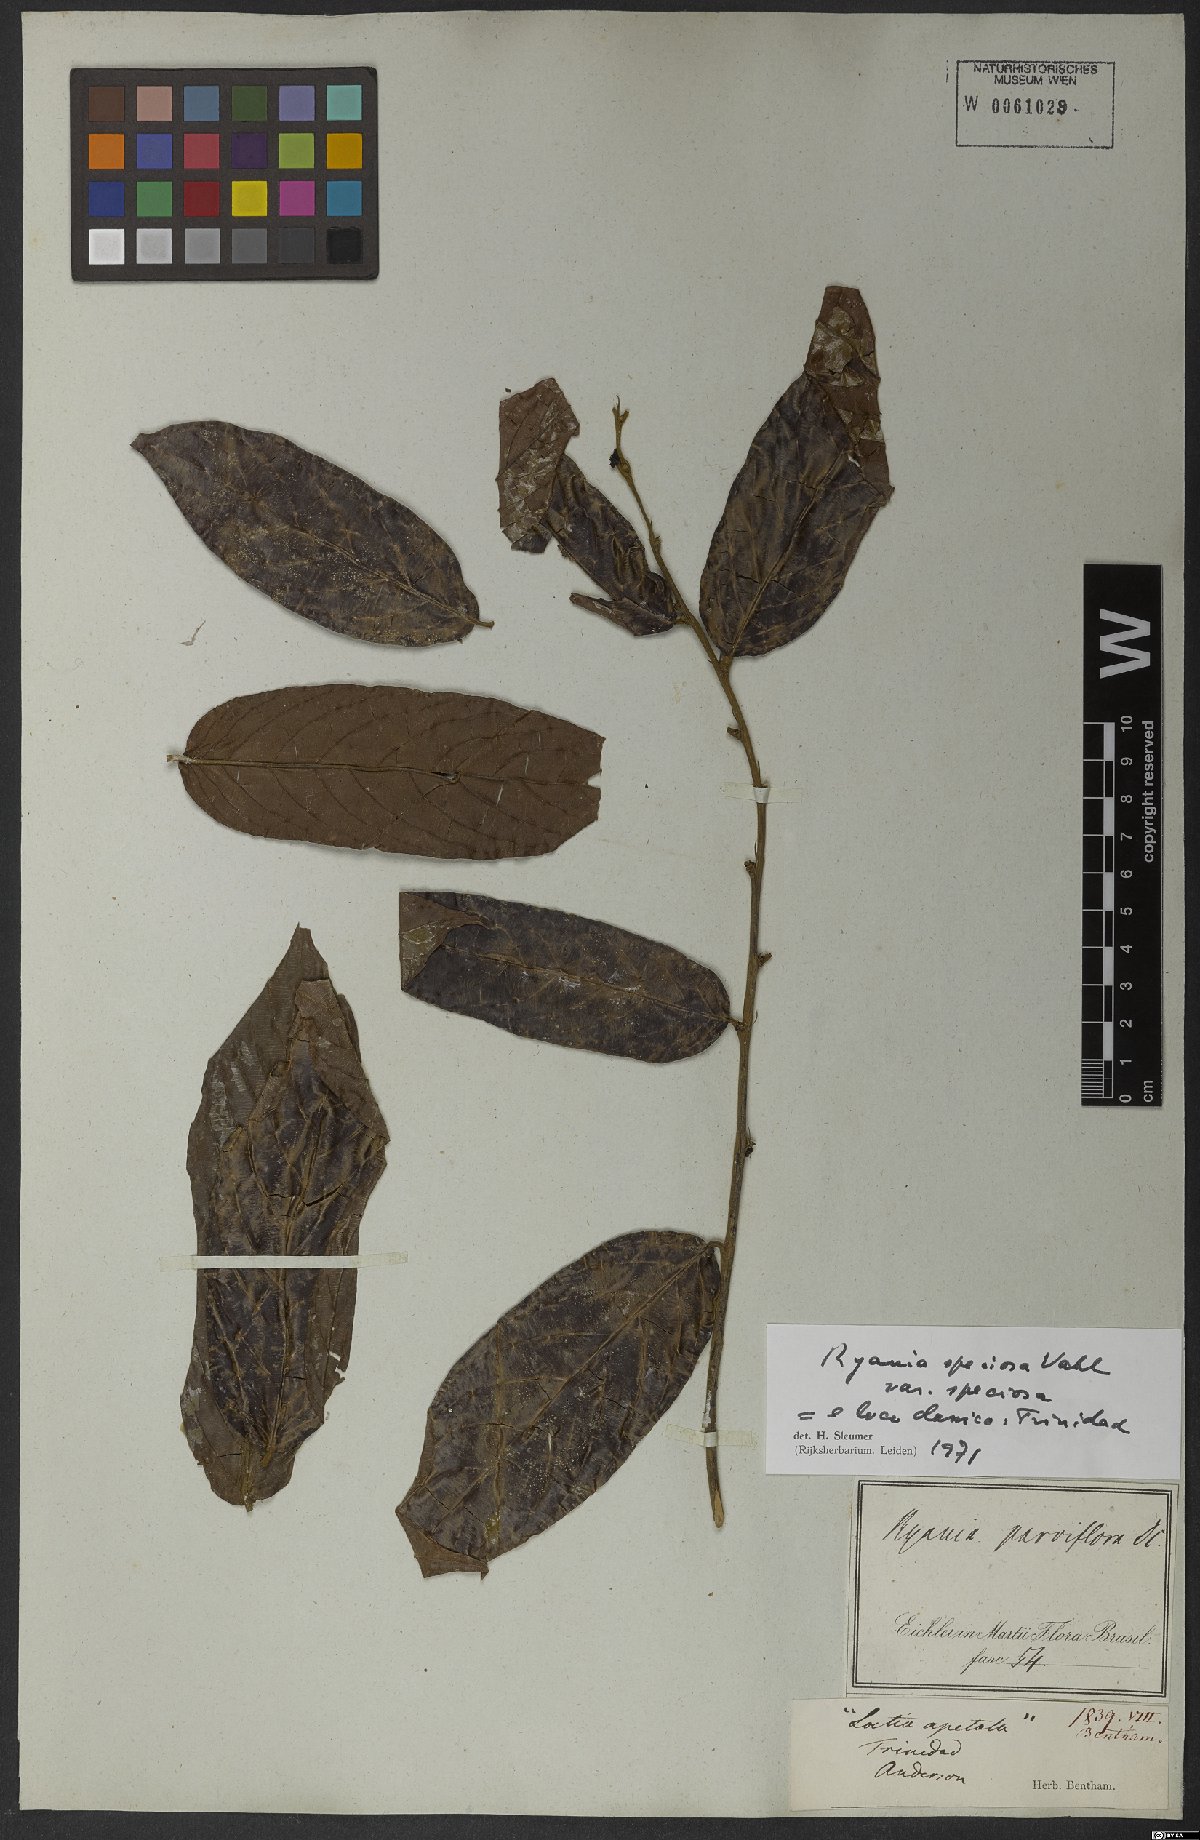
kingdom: Plantae
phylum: Tracheophyta
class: Magnoliopsida
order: Malpighiales
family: Salicaceae
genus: Ryania
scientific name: Ryania speciosa
